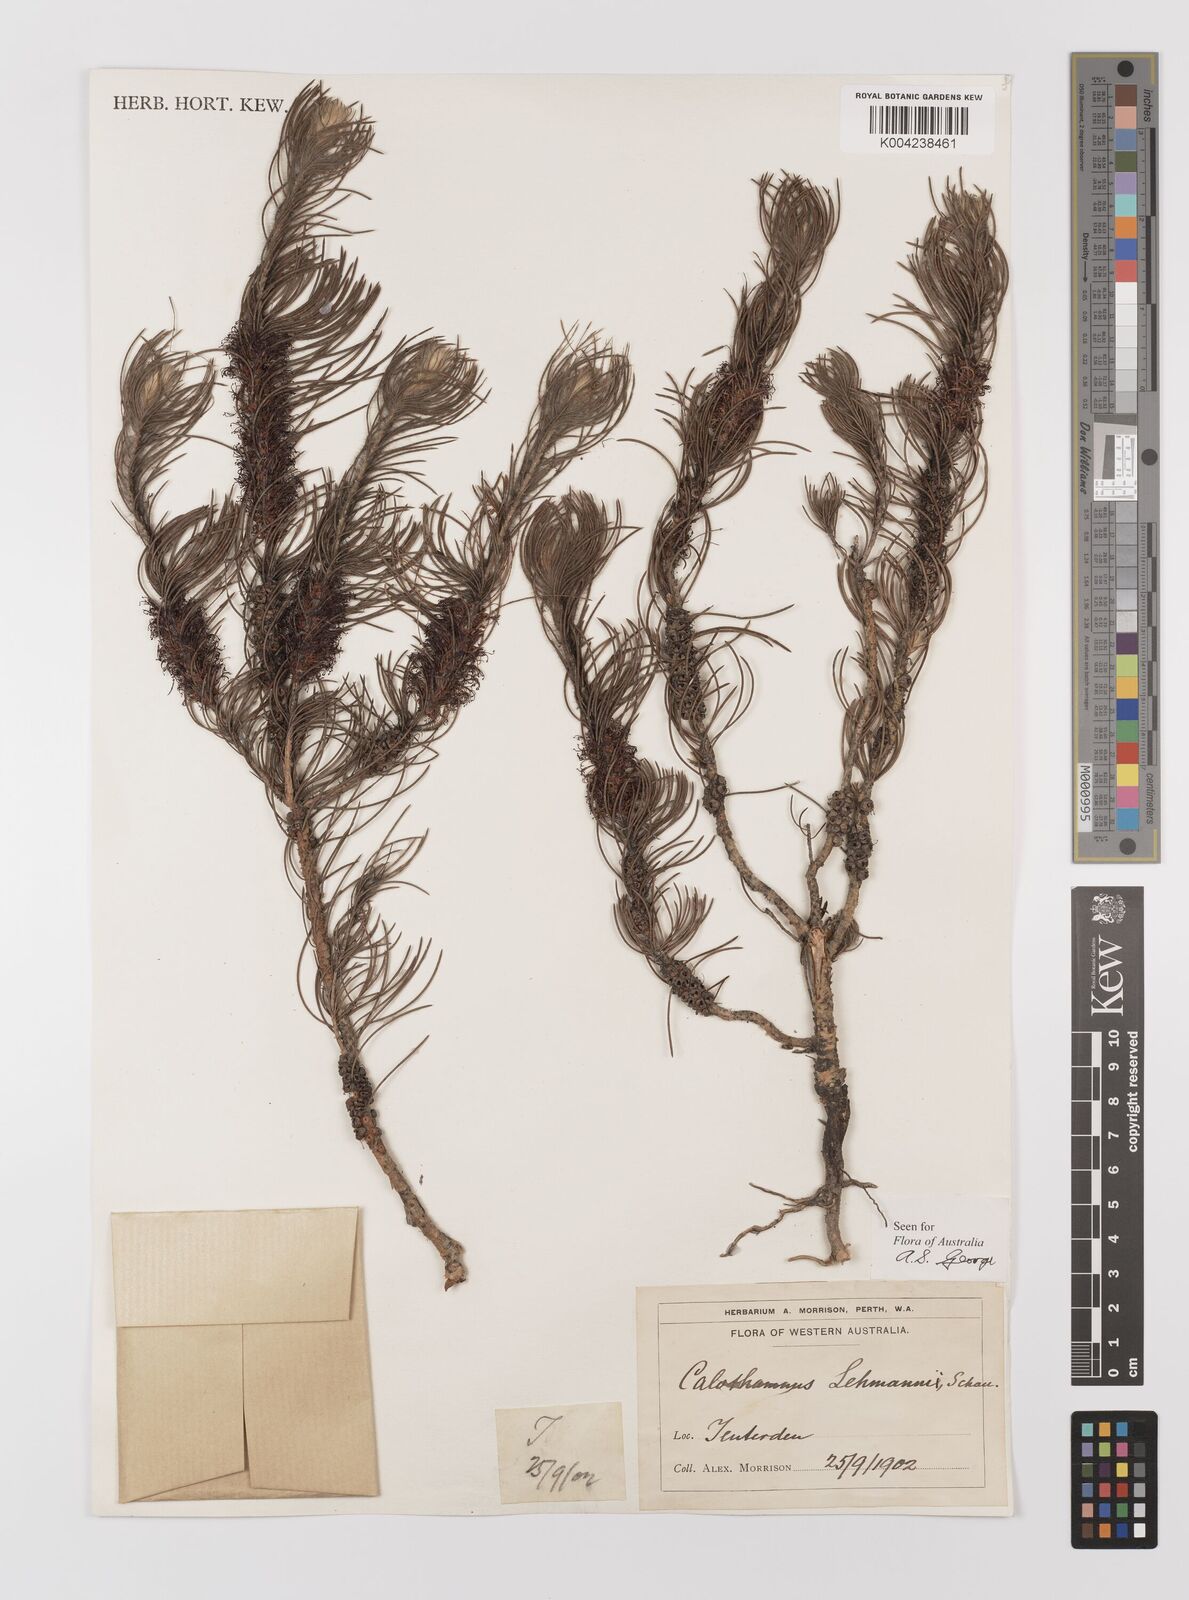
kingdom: Plantae
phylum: Tracheophyta
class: Magnoliopsida
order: Myrtales
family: Myrtaceae
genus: Melaleuca
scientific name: Melaleuca johannis-lehmannii
